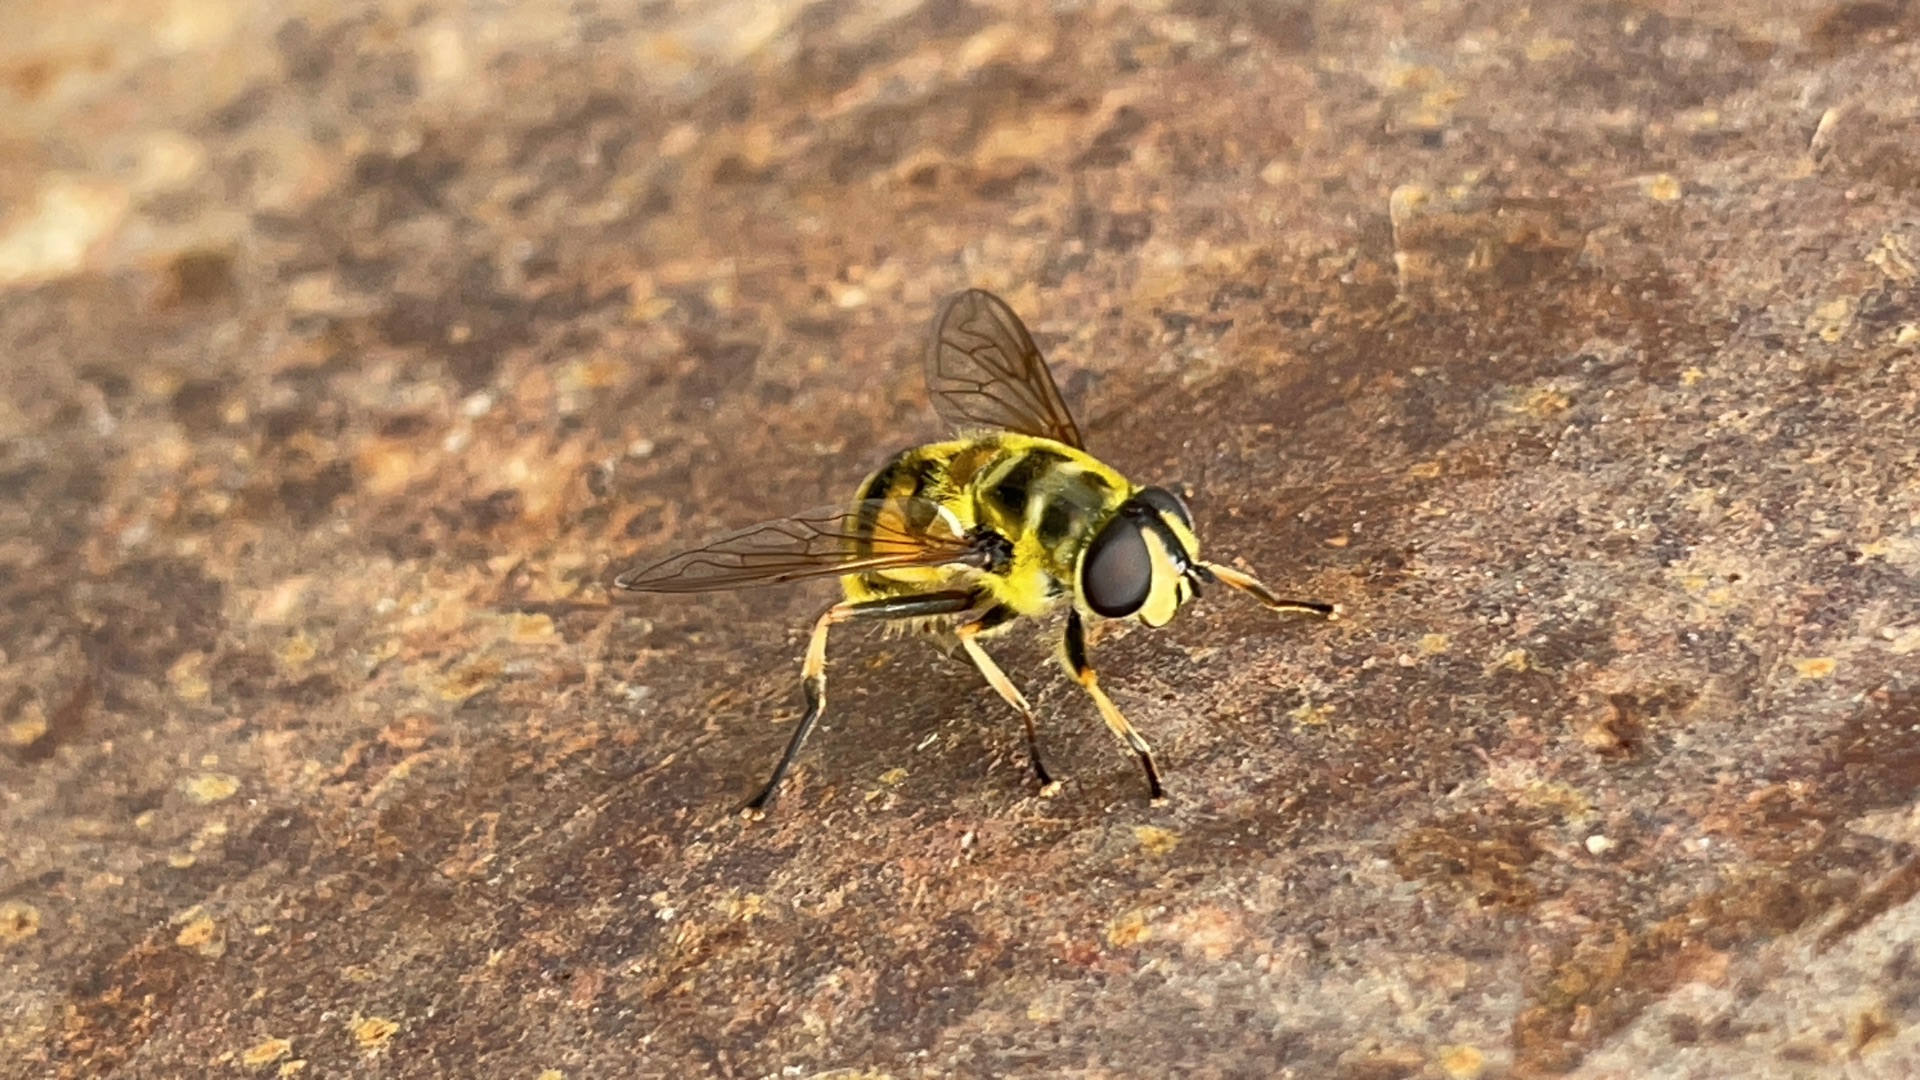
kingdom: Animalia
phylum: Arthropoda
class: Insecta
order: Diptera
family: Syrphidae
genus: Myathropa
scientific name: Myathropa florea
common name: Dødningehoved-svirreflue
